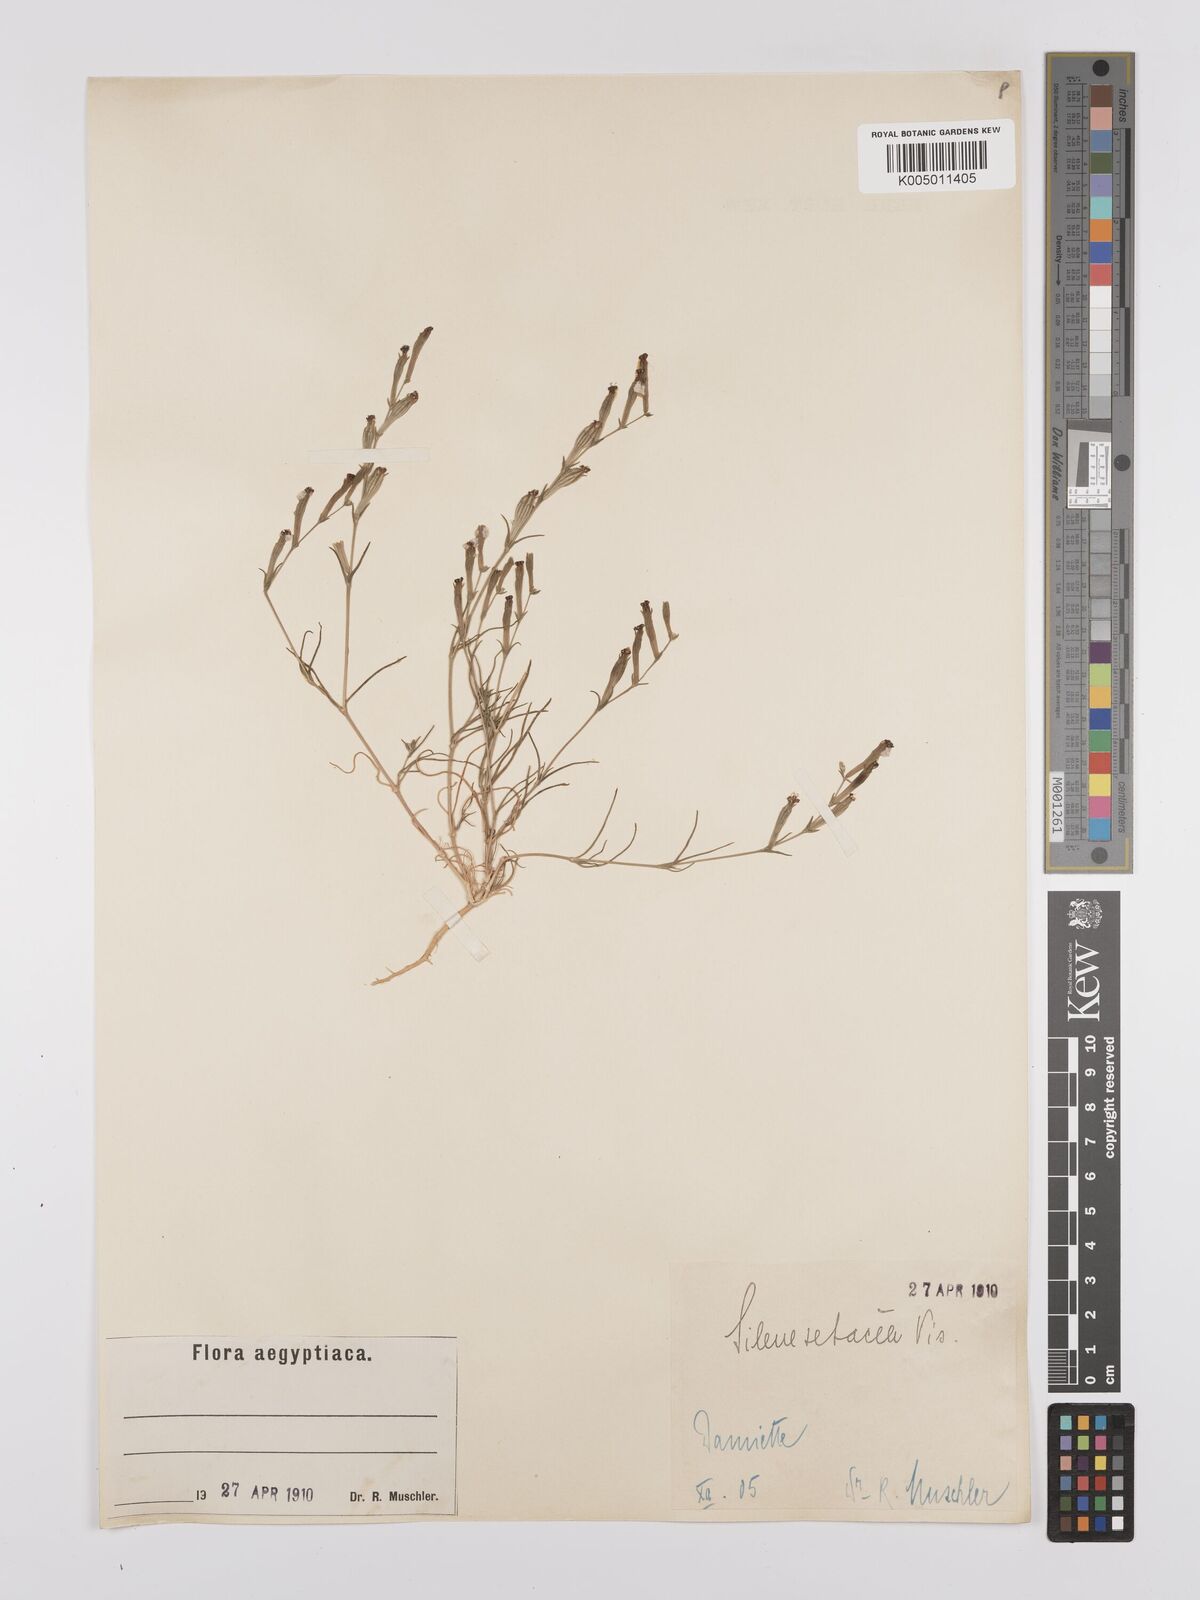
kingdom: Plantae
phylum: Tracheophyta
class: Magnoliopsida
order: Caryophyllales
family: Caryophyllaceae
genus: Silene
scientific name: Silene vivianii
